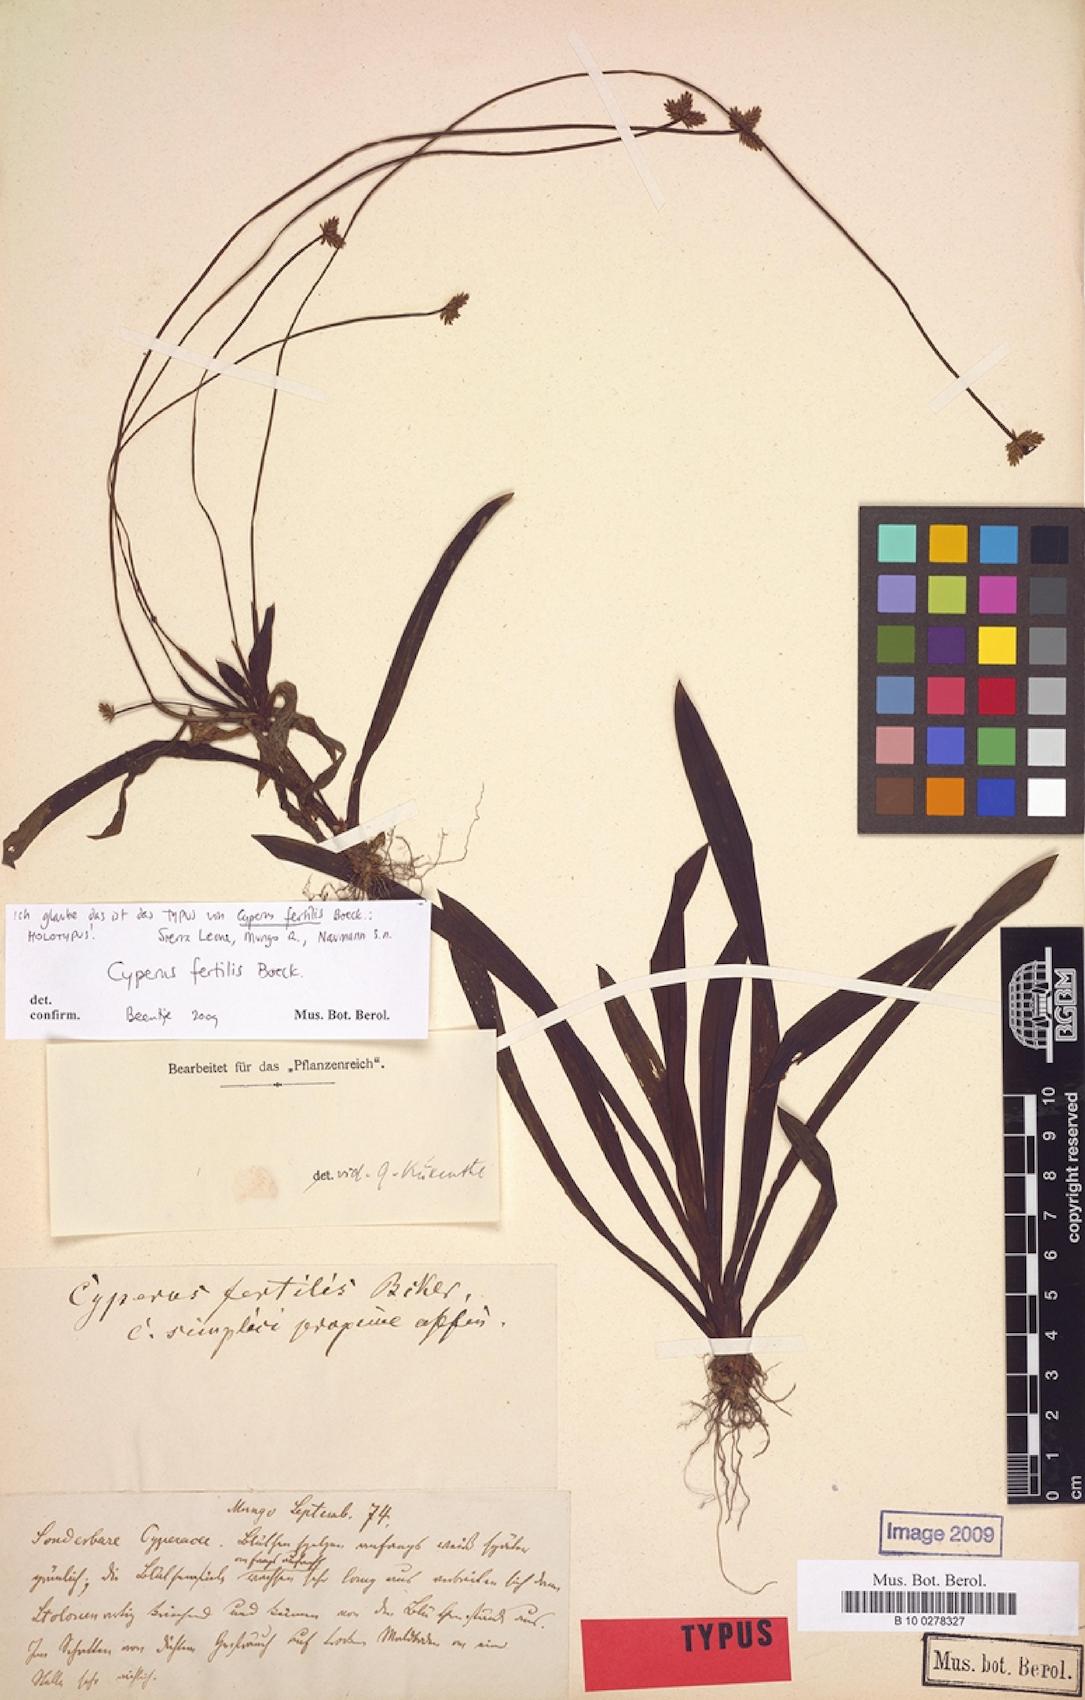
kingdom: Plantae
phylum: Tracheophyta
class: Liliopsida
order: Poales
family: Cyperaceae
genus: Cyperus
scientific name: Cyperus fertilis
